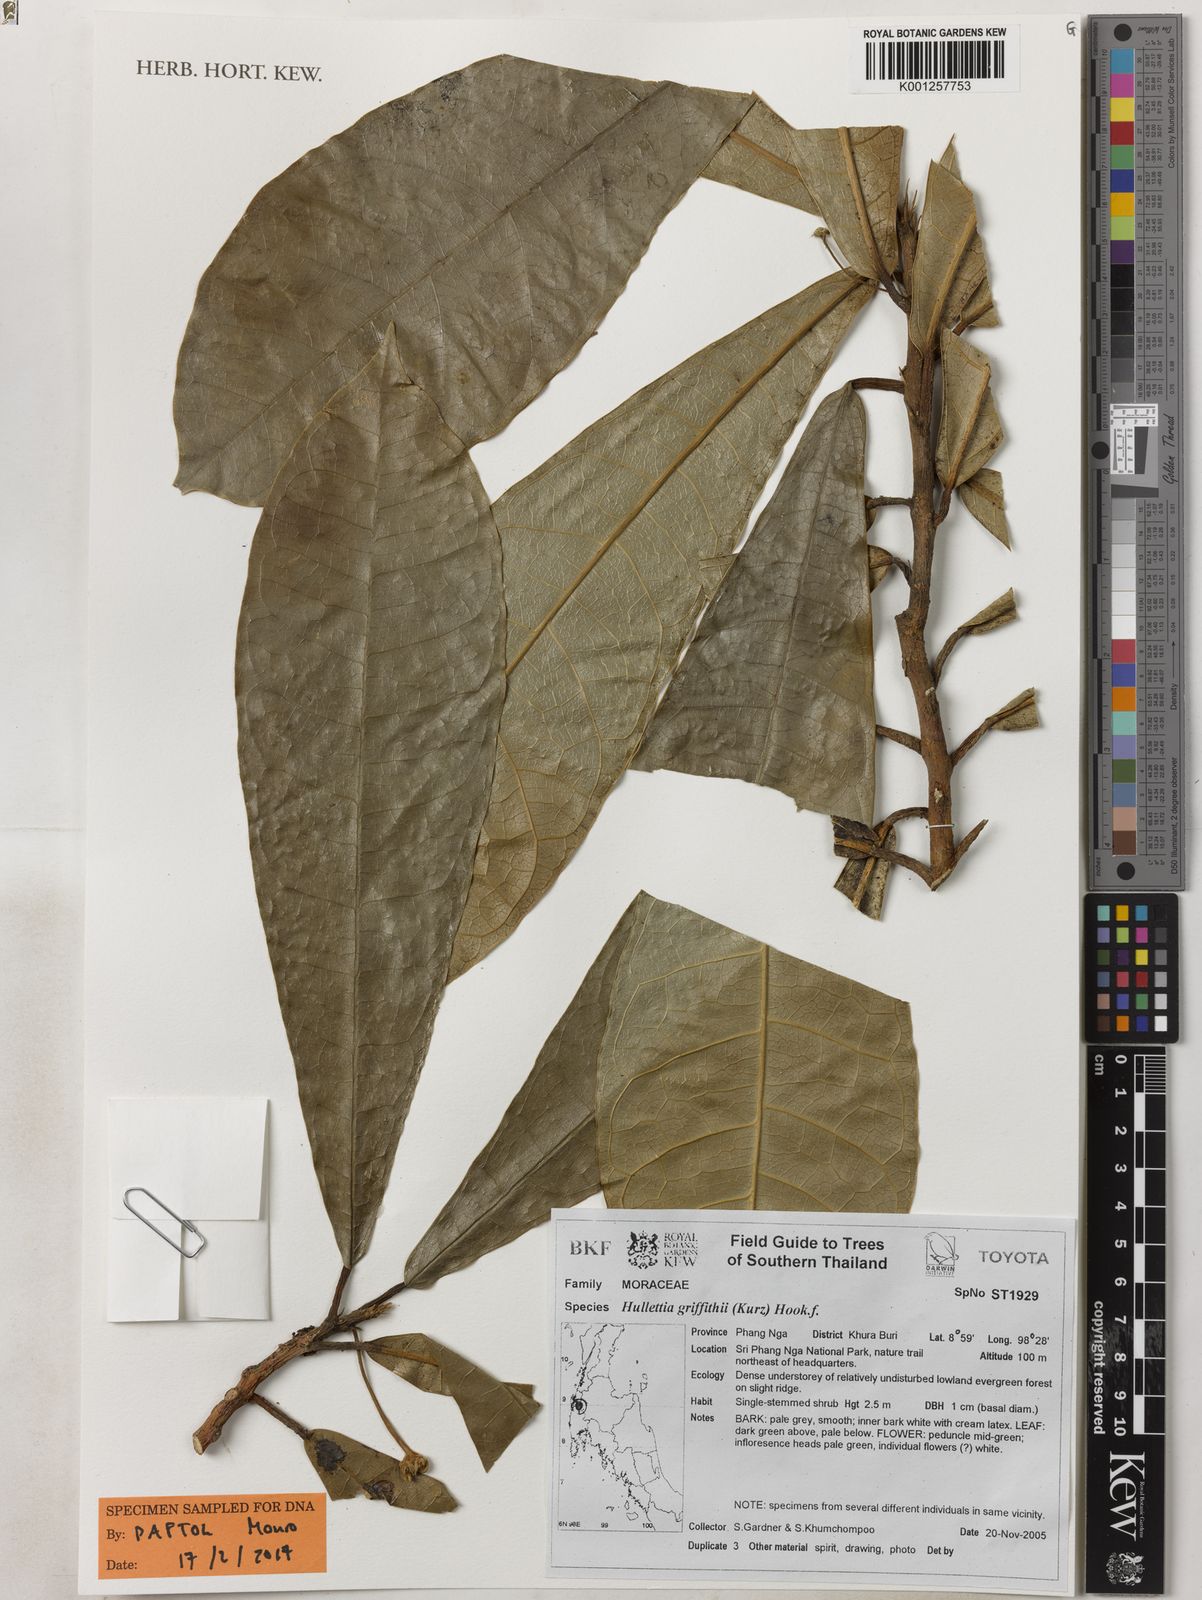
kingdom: Plantae
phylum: Tracheophyta
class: Magnoliopsida
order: Rosales
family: Moraceae
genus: Hullettia
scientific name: Hullettia
